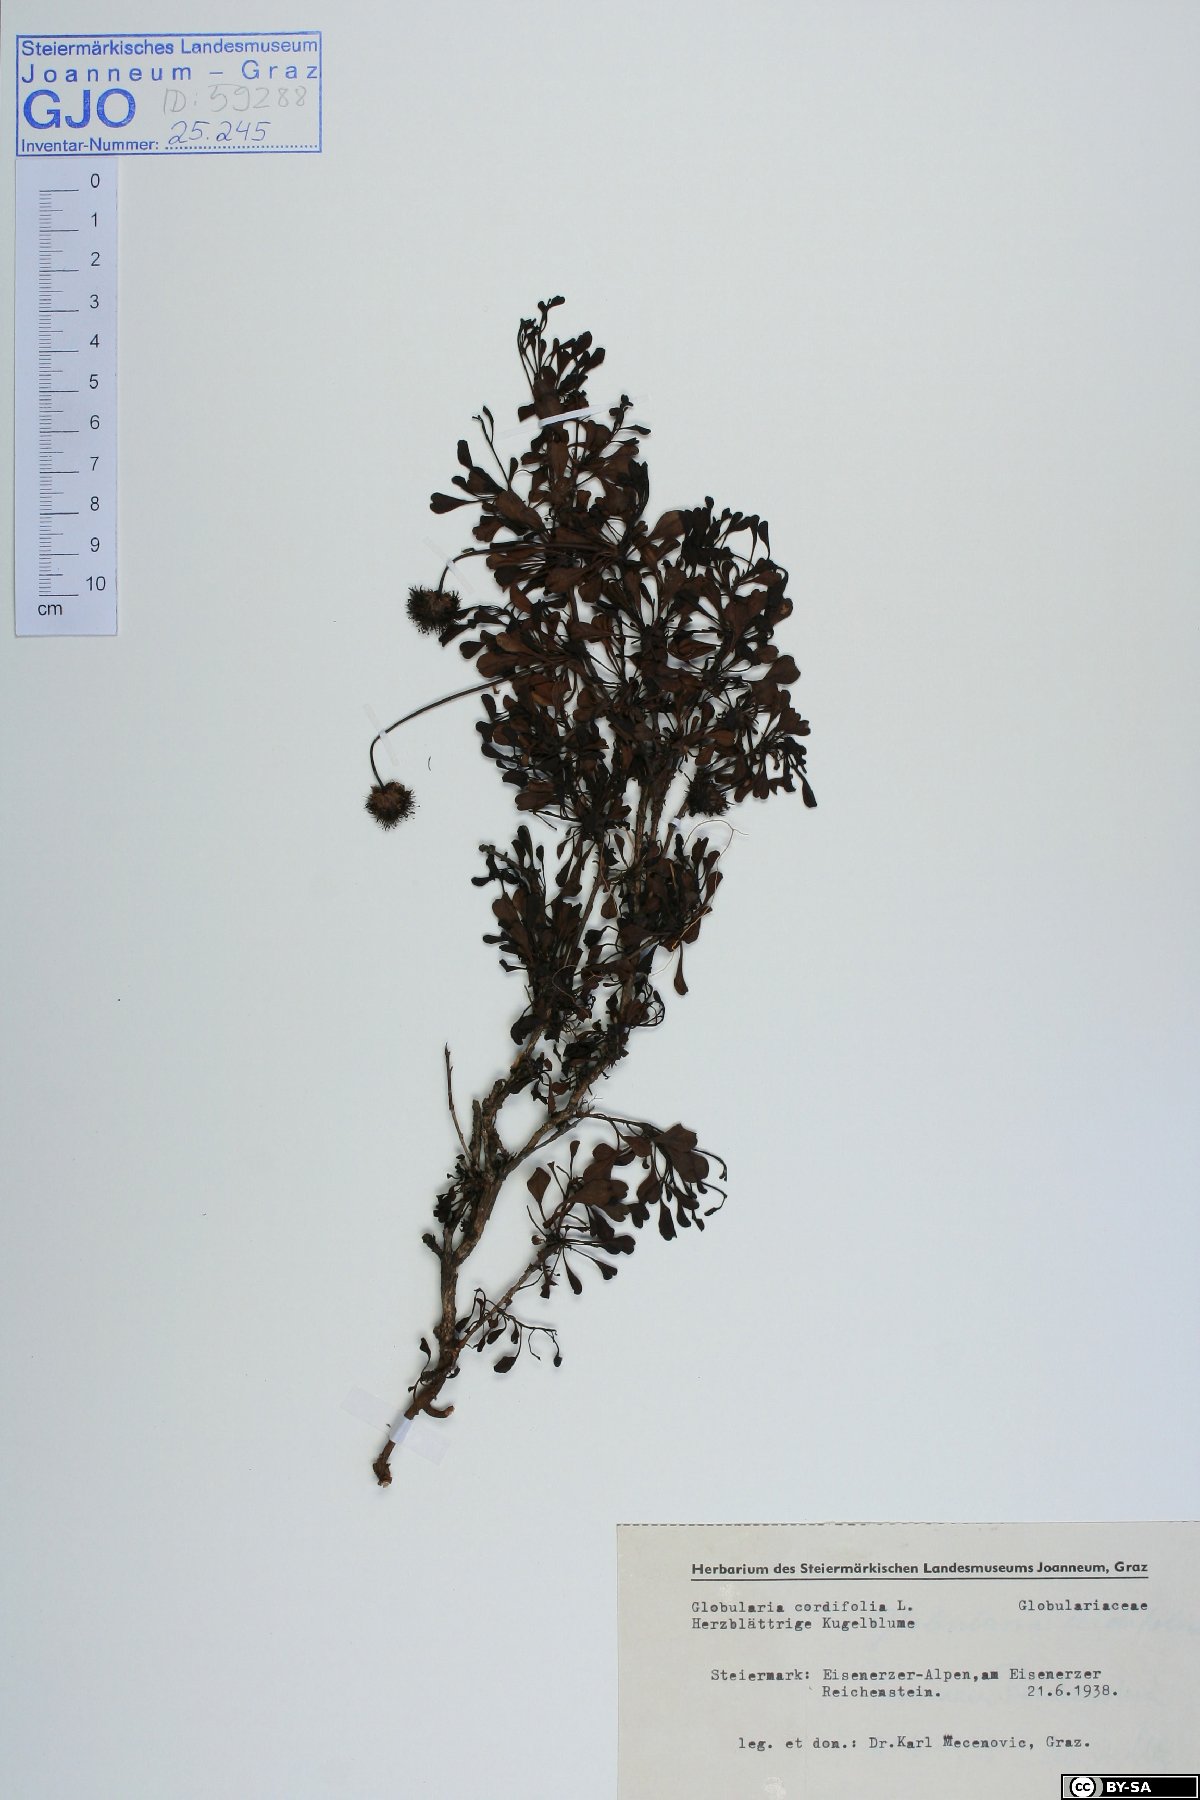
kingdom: Plantae
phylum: Tracheophyta
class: Magnoliopsida
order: Lamiales
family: Plantaginaceae
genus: Globularia
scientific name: Globularia cordifolia
